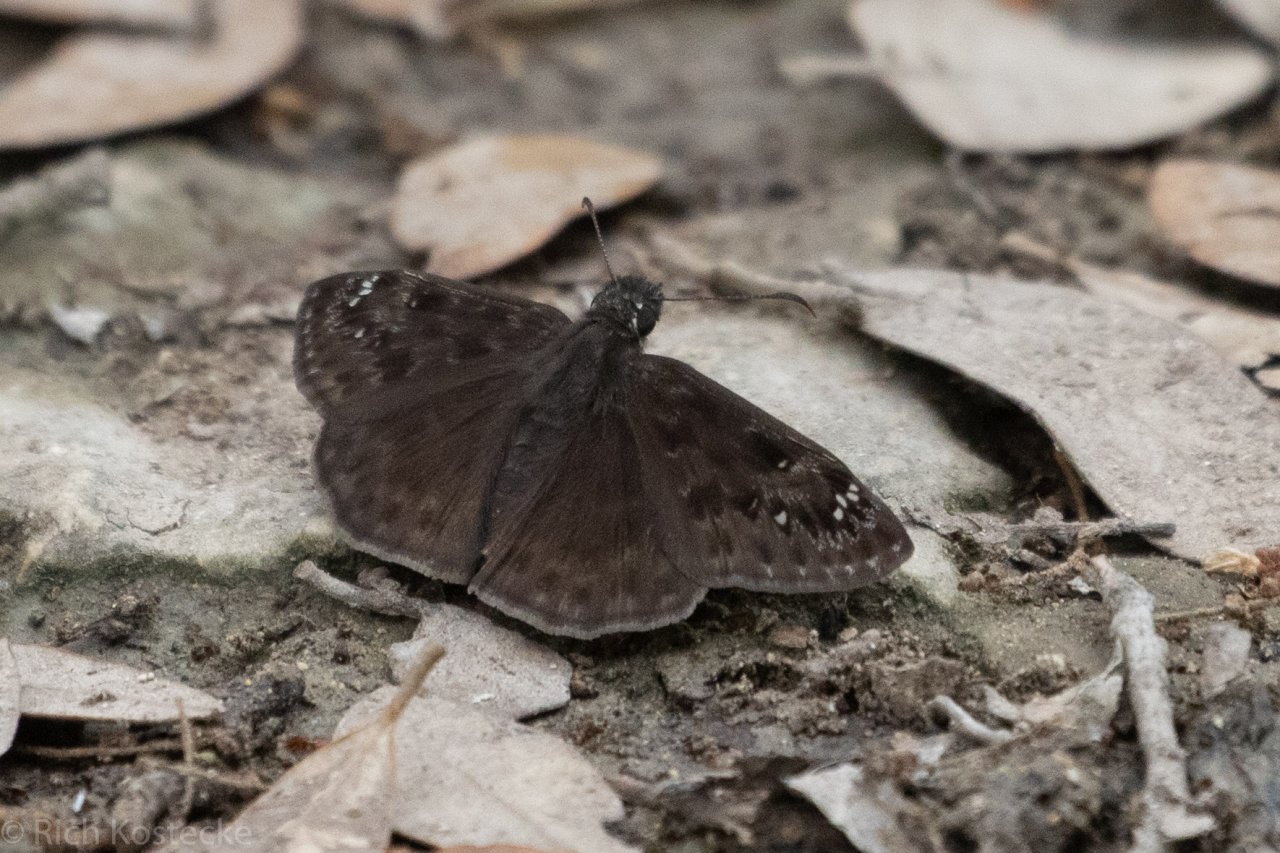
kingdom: Animalia
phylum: Arthropoda
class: Insecta
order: Lepidoptera
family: Hesperiidae
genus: Gesta
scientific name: Gesta
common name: Wild Indigo Duskywing
